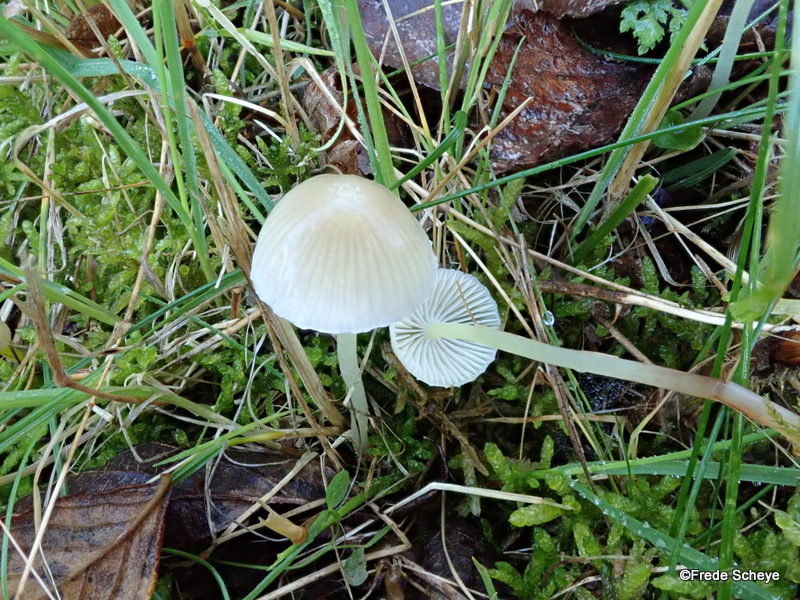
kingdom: Fungi
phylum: Basidiomycota
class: Agaricomycetes
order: Agaricales
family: Mycenaceae
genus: Mycena
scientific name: Mycena epipterygia
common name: gulstokket huesvamp
